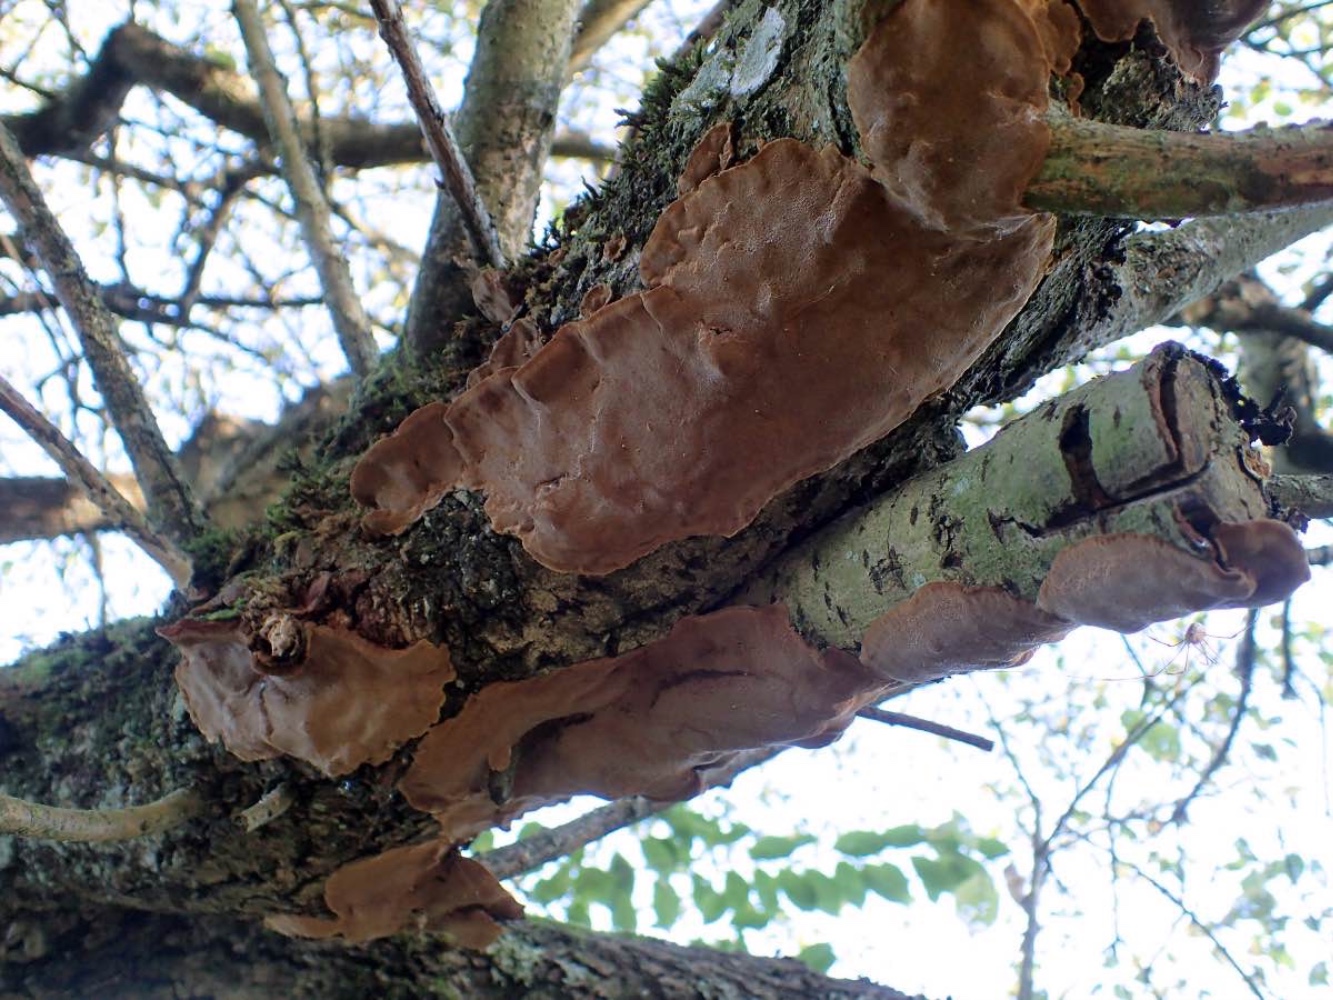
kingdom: Fungi
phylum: Basidiomycota
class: Agaricomycetes
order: Hymenochaetales
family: Hymenochaetaceae
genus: Phellinopsis
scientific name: Phellinopsis conchata
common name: pile-ildporesvamp
